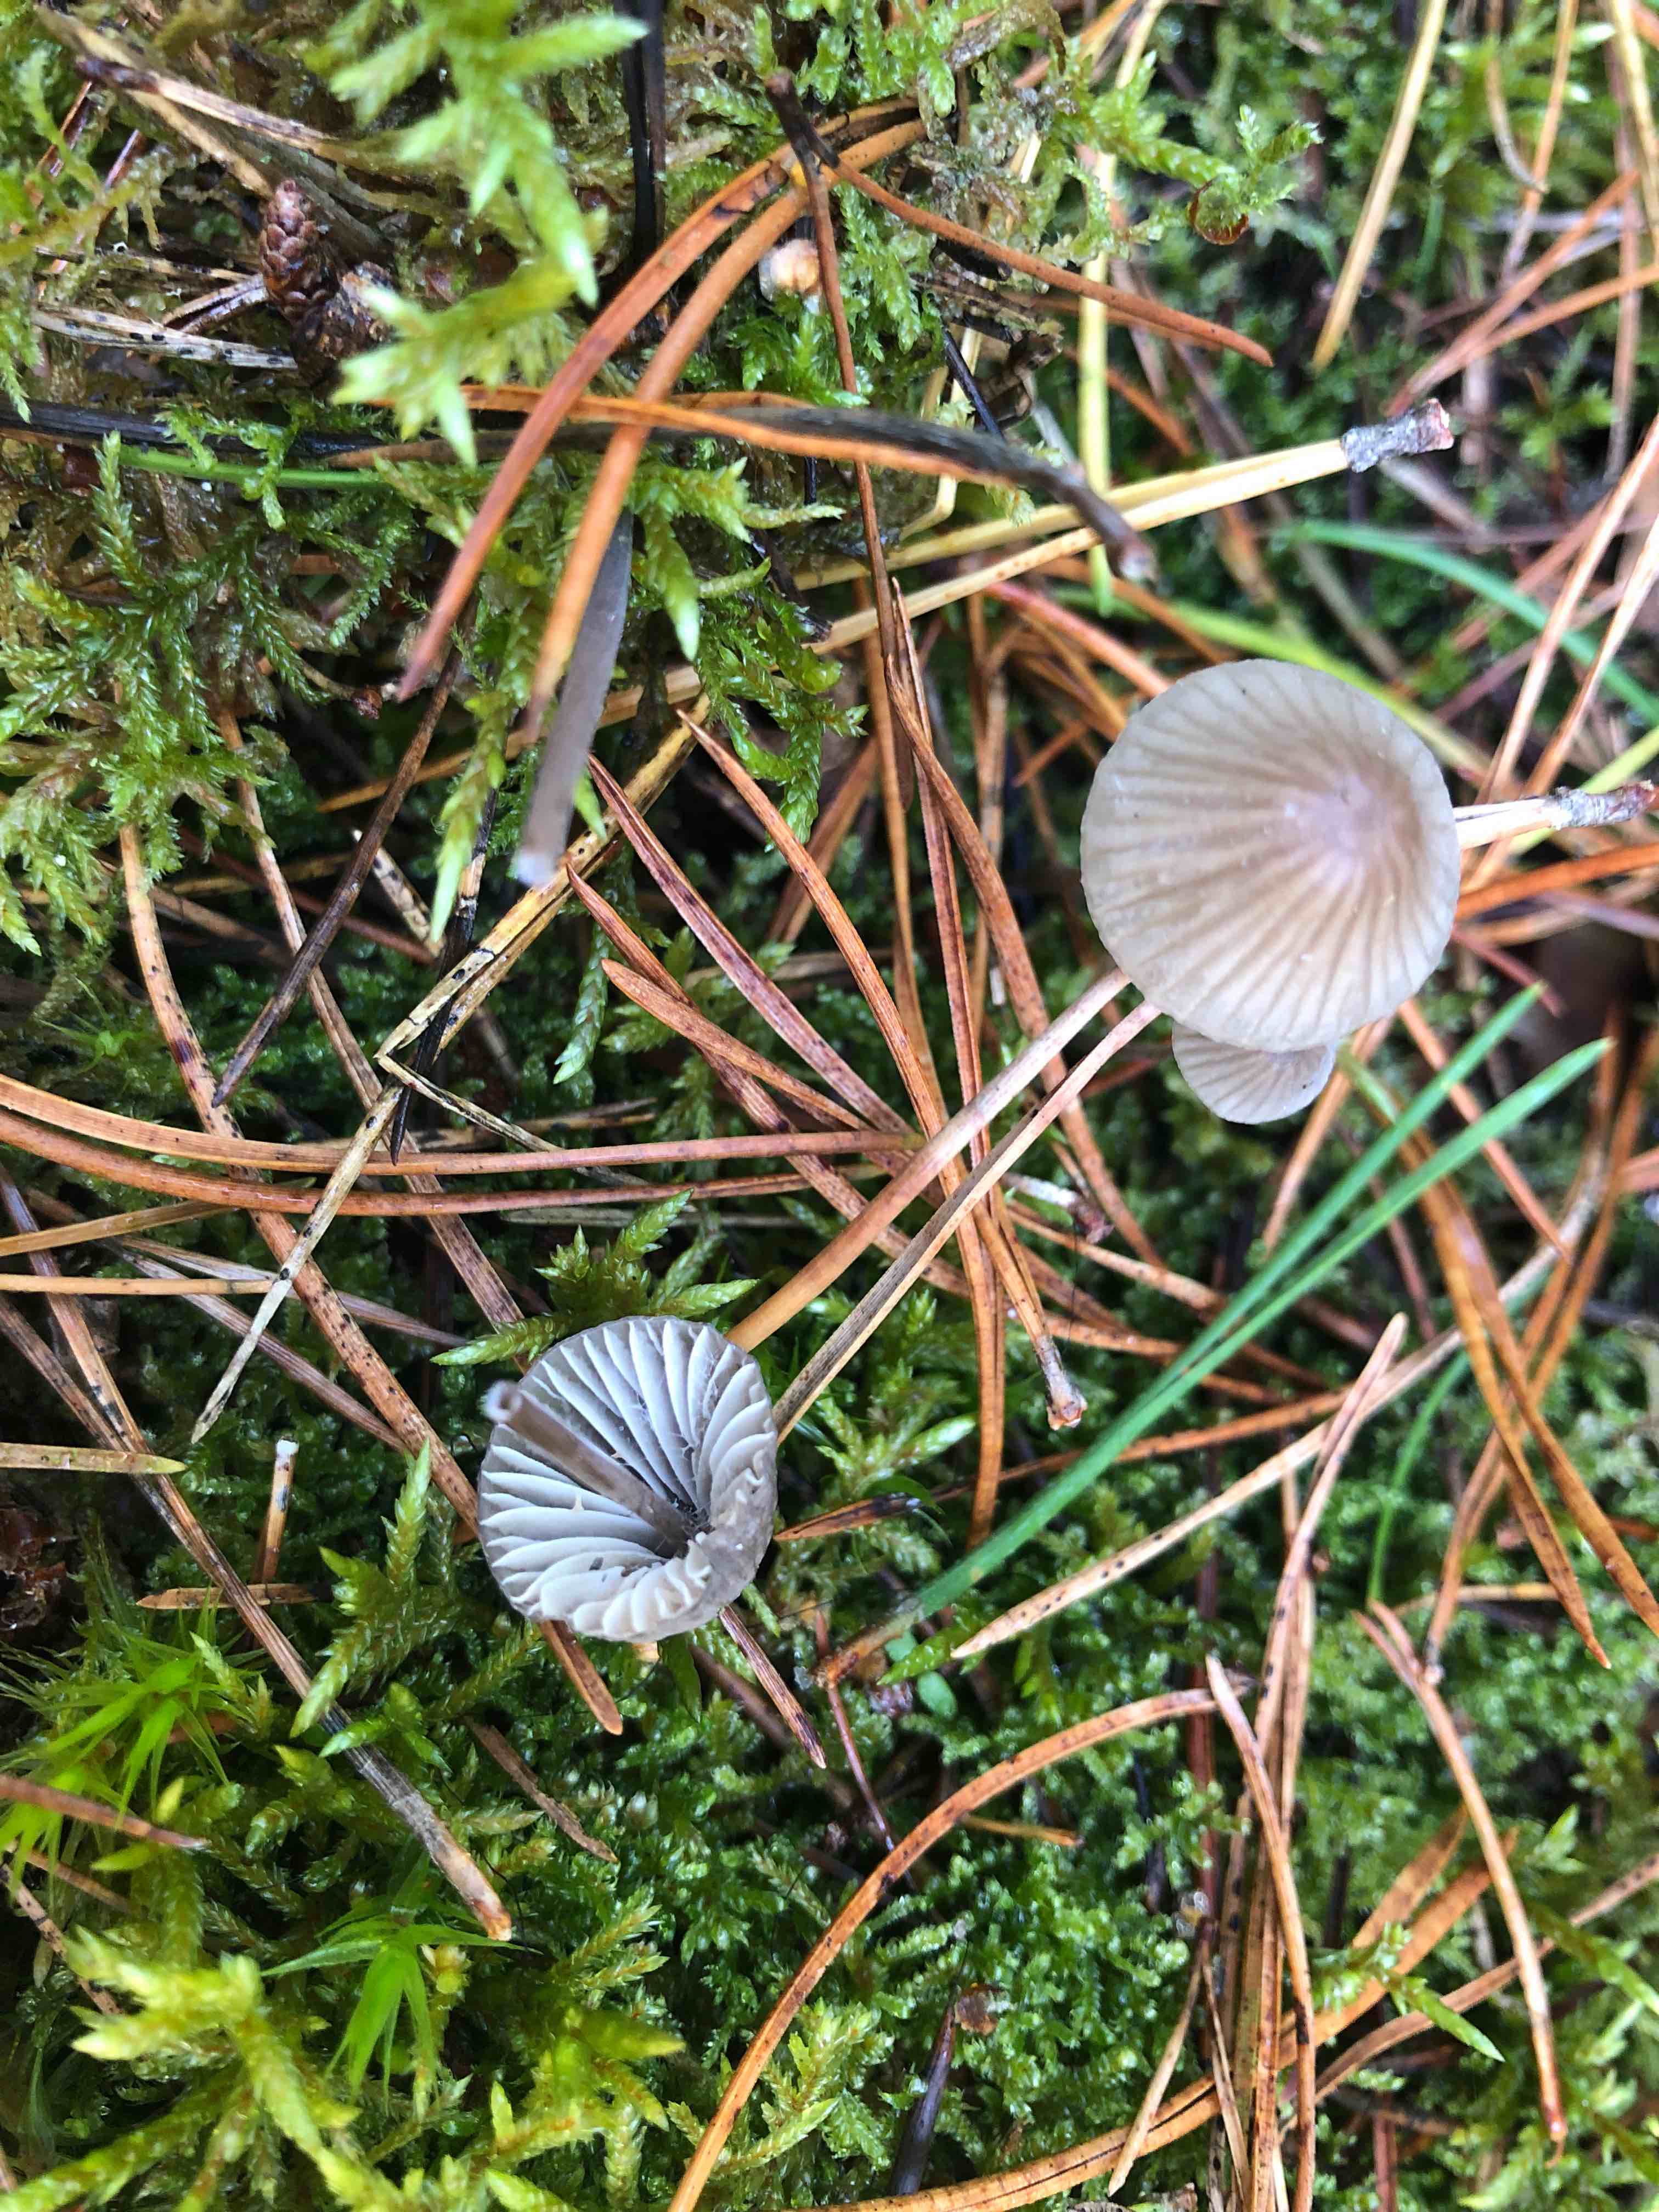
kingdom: Fungi
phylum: Basidiomycota
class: Agaricomycetes
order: Agaricales
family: Mycenaceae
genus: Mycena
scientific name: Mycena galopus
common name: hvidmælket huesvamp
